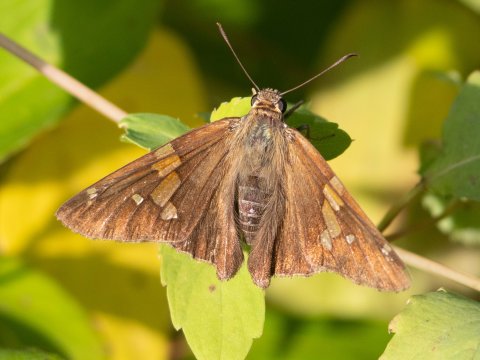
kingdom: Animalia
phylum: Arthropoda
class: Insecta
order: Lepidoptera
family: Hesperiidae
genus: Epargyreus
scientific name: Epargyreus clarus
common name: Silver-spotted Skipper
